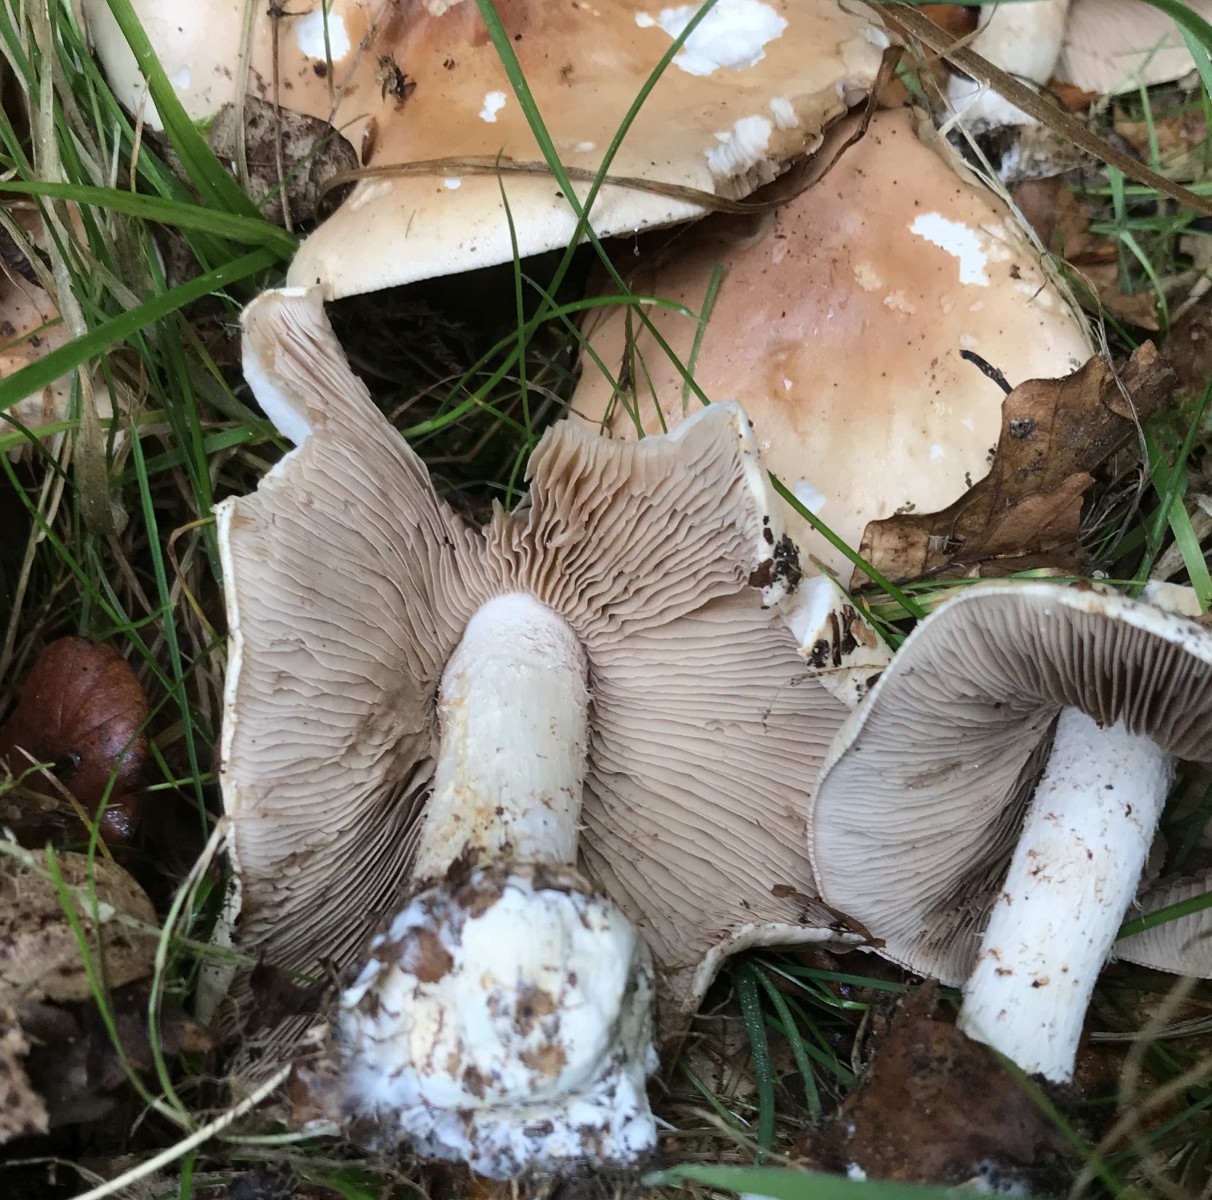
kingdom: Fungi
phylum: Basidiomycota
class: Agaricomycetes
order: Agaricales
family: Hymenogastraceae
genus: Hebeloma
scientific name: Hebeloma sinapizans
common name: ræddike-tåreblad
